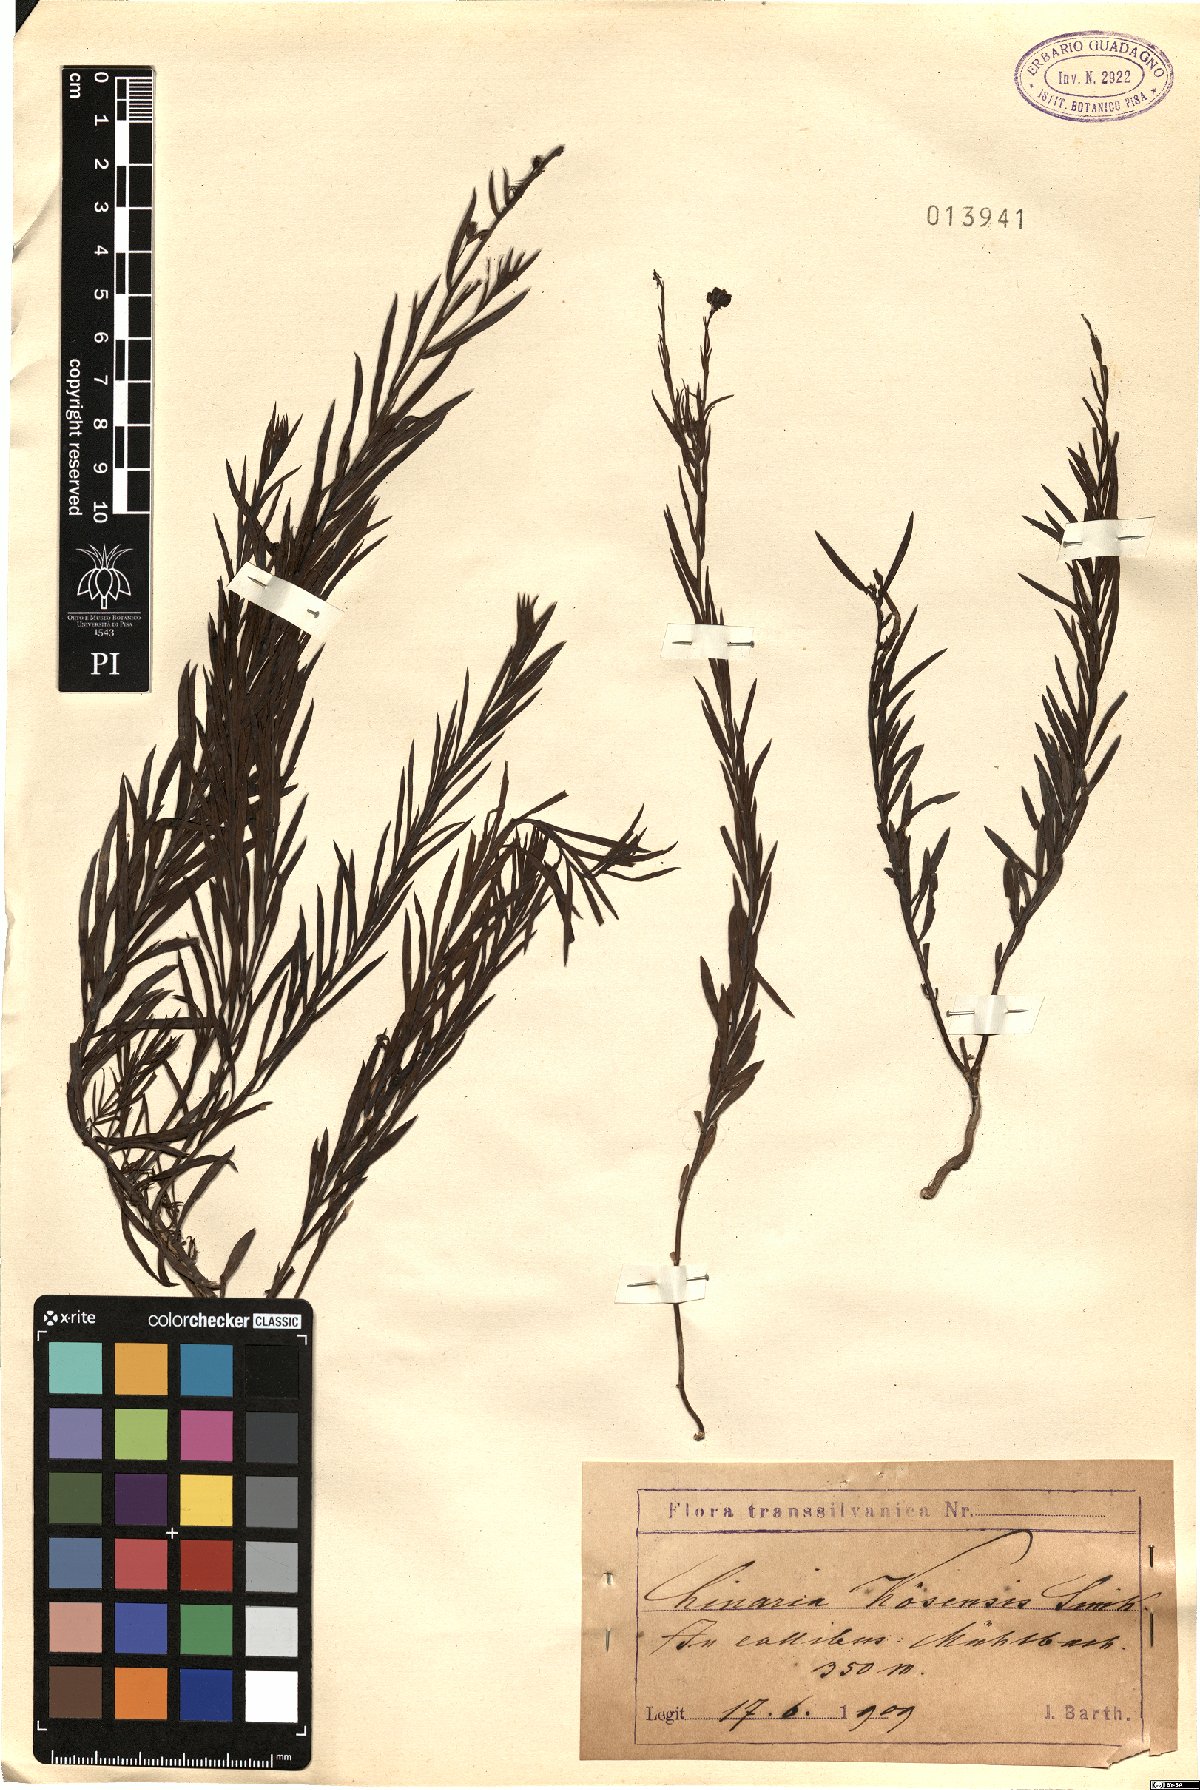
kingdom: Plantae
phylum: Tracheophyta
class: Magnoliopsida
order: Lamiales
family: Plantaginaceae
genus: Linaria
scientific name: Linaria angustissima
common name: Italian toadflax
